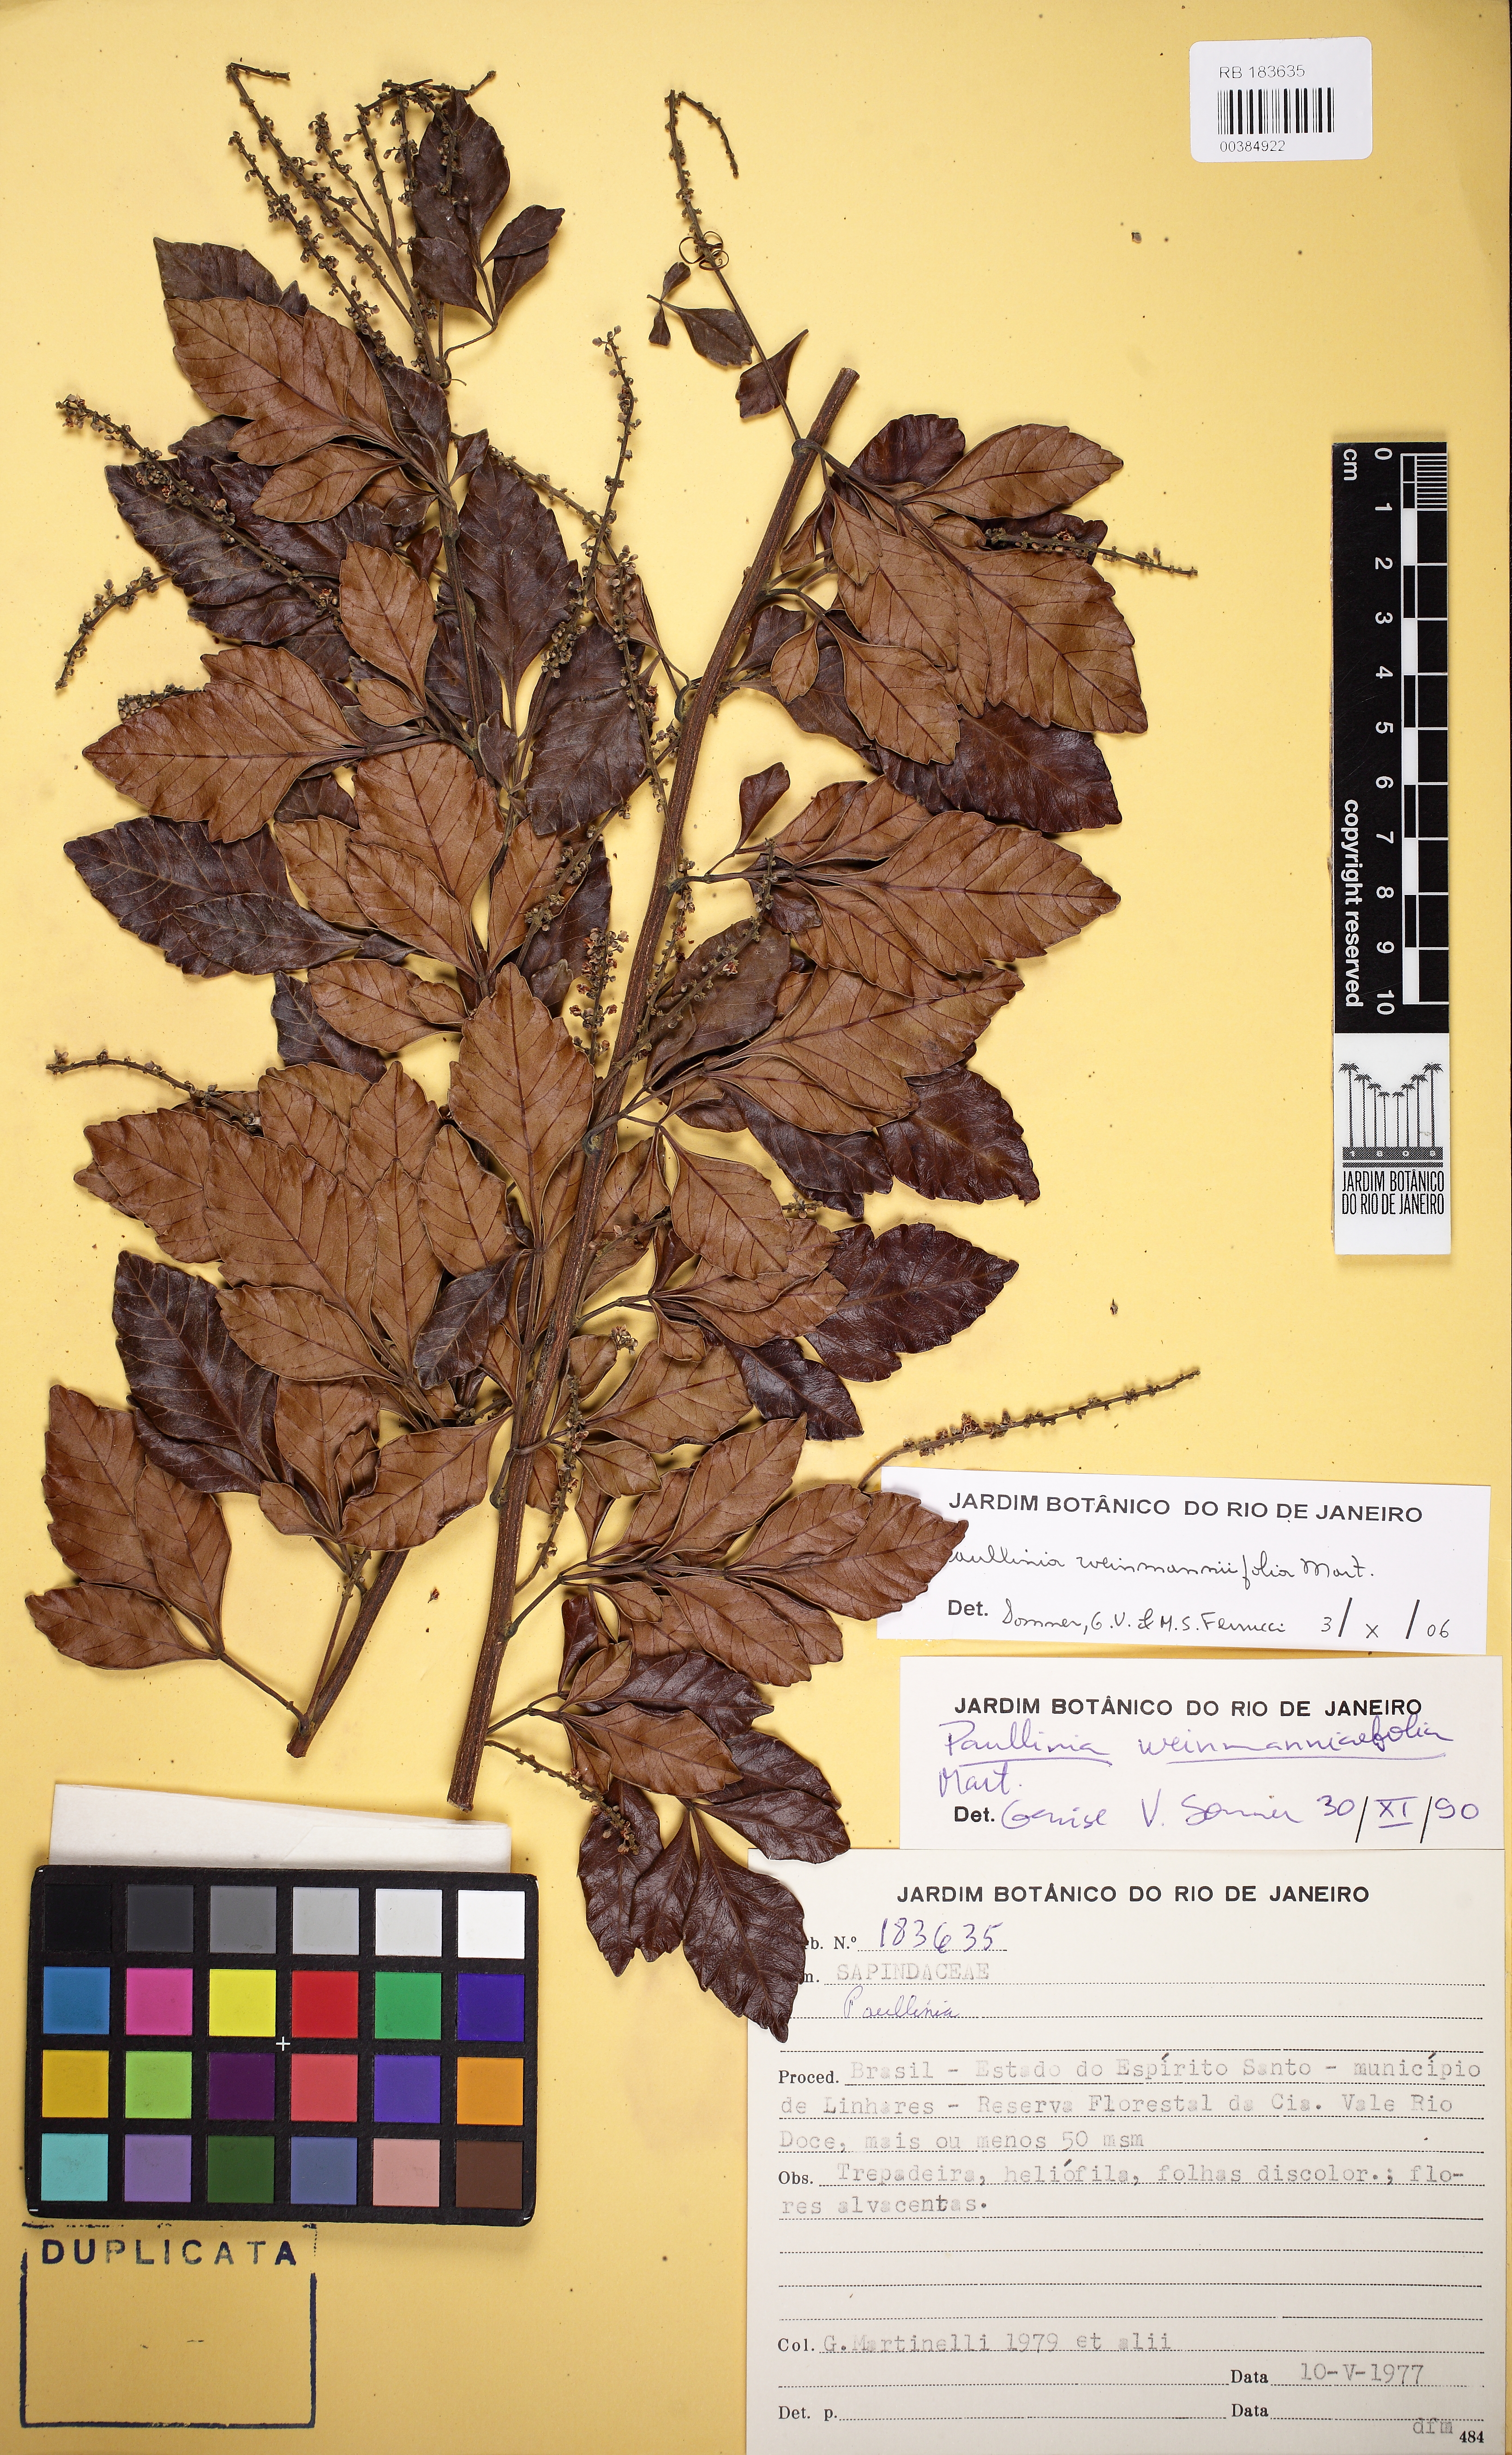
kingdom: Plantae
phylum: Tracheophyta
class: Magnoliopsida
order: Sapindales
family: Sapindaceae
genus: Paullinia
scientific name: Paullinia weinmanniifolia
